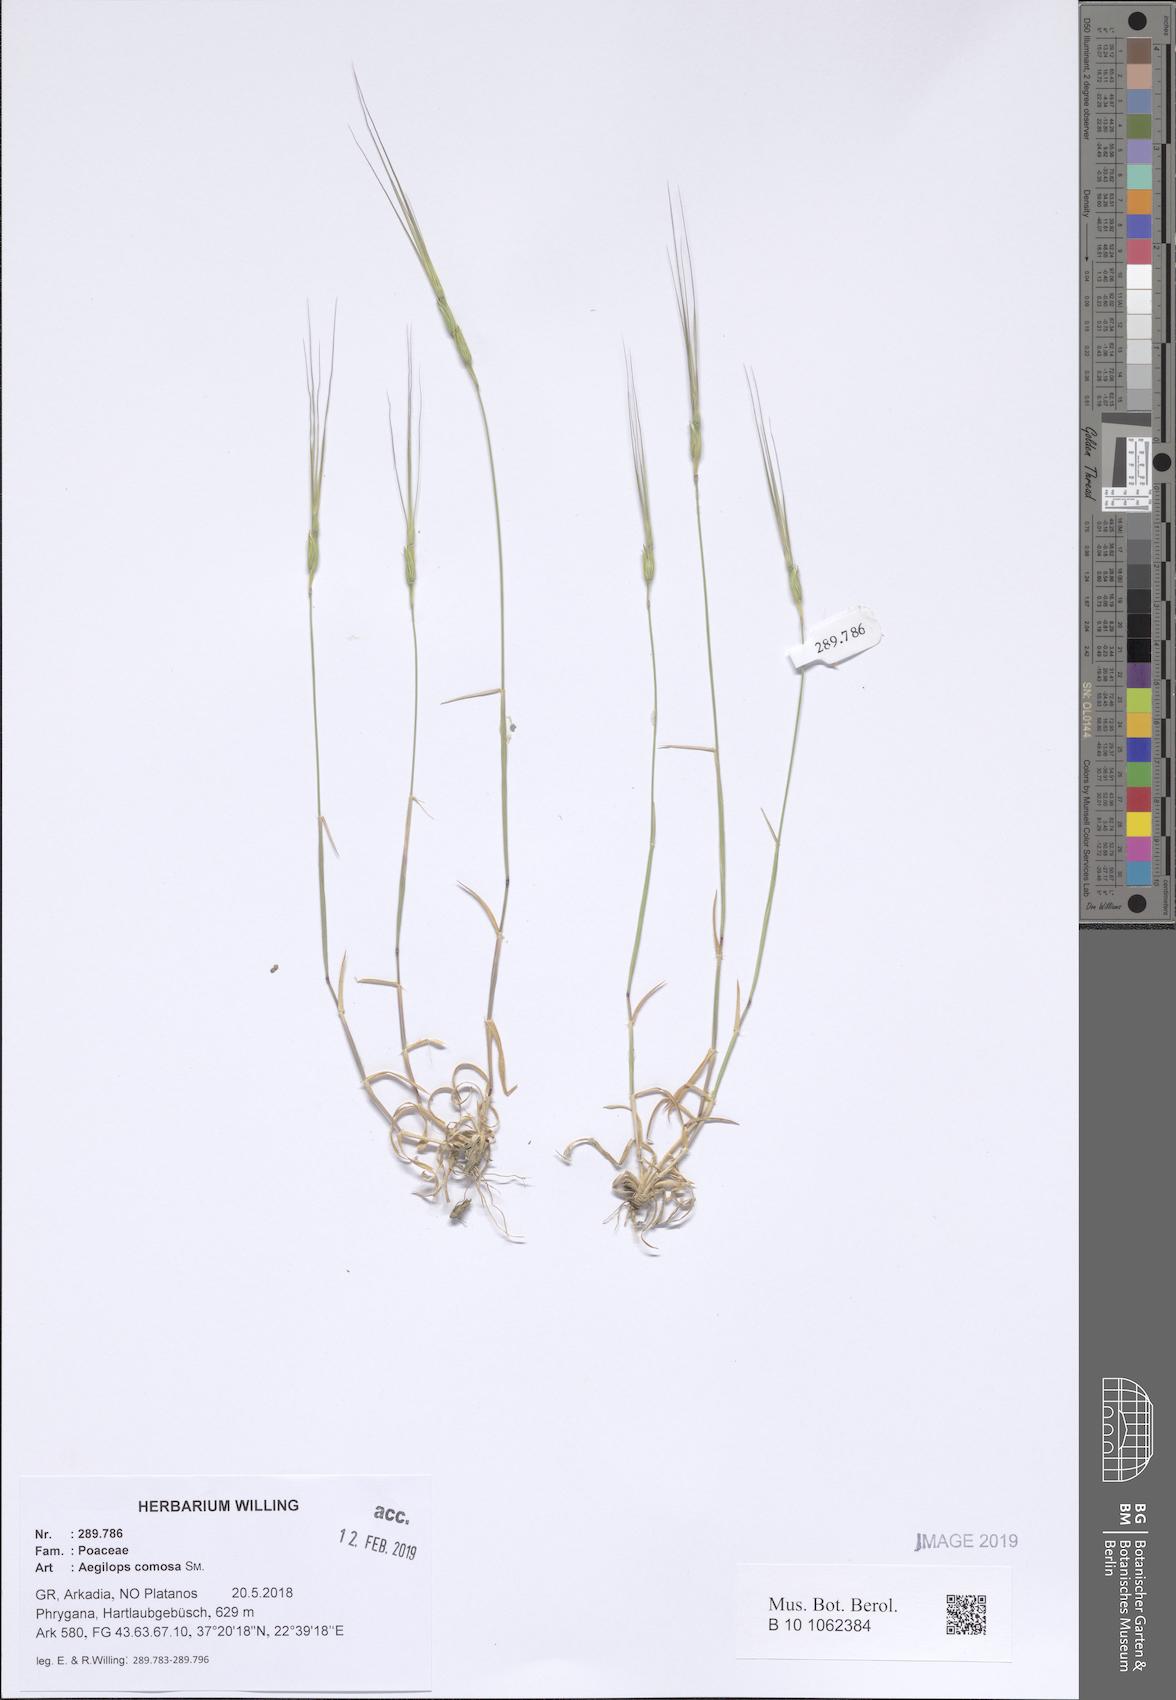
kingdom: Plantae
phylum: Tracheophyta
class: Liliopsida
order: Poales
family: Poaceae
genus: Aegilops
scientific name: Aegilops comosa
